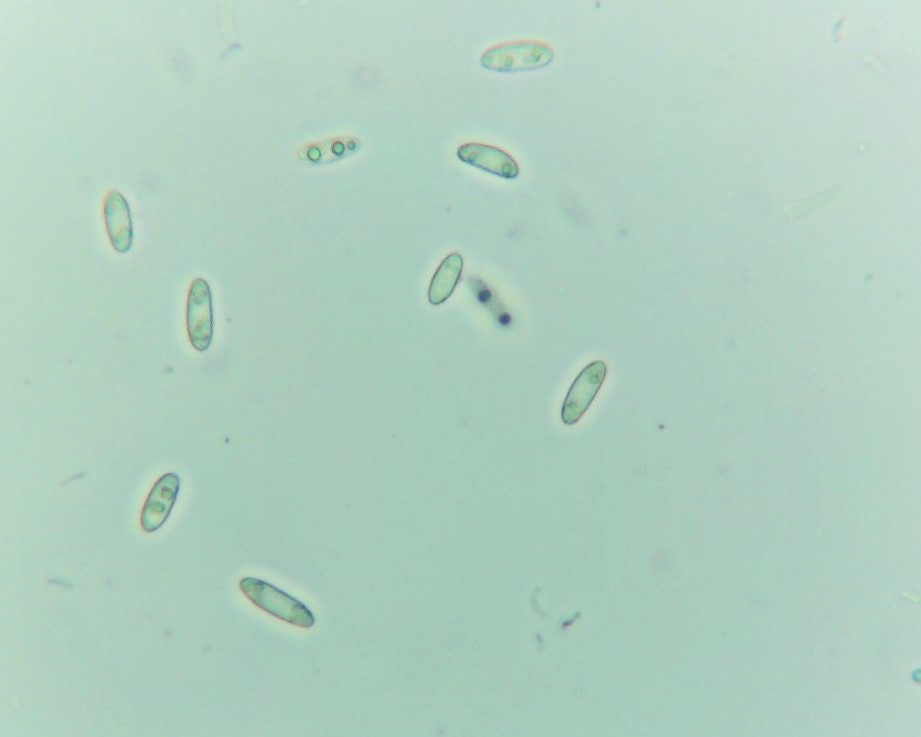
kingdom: Fungi
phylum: Ascomycota
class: Leotiomycetes
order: Helotiales
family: Helotiaceae
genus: Hymenoscyphus
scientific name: Hymenoscyphus
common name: stilkskive
